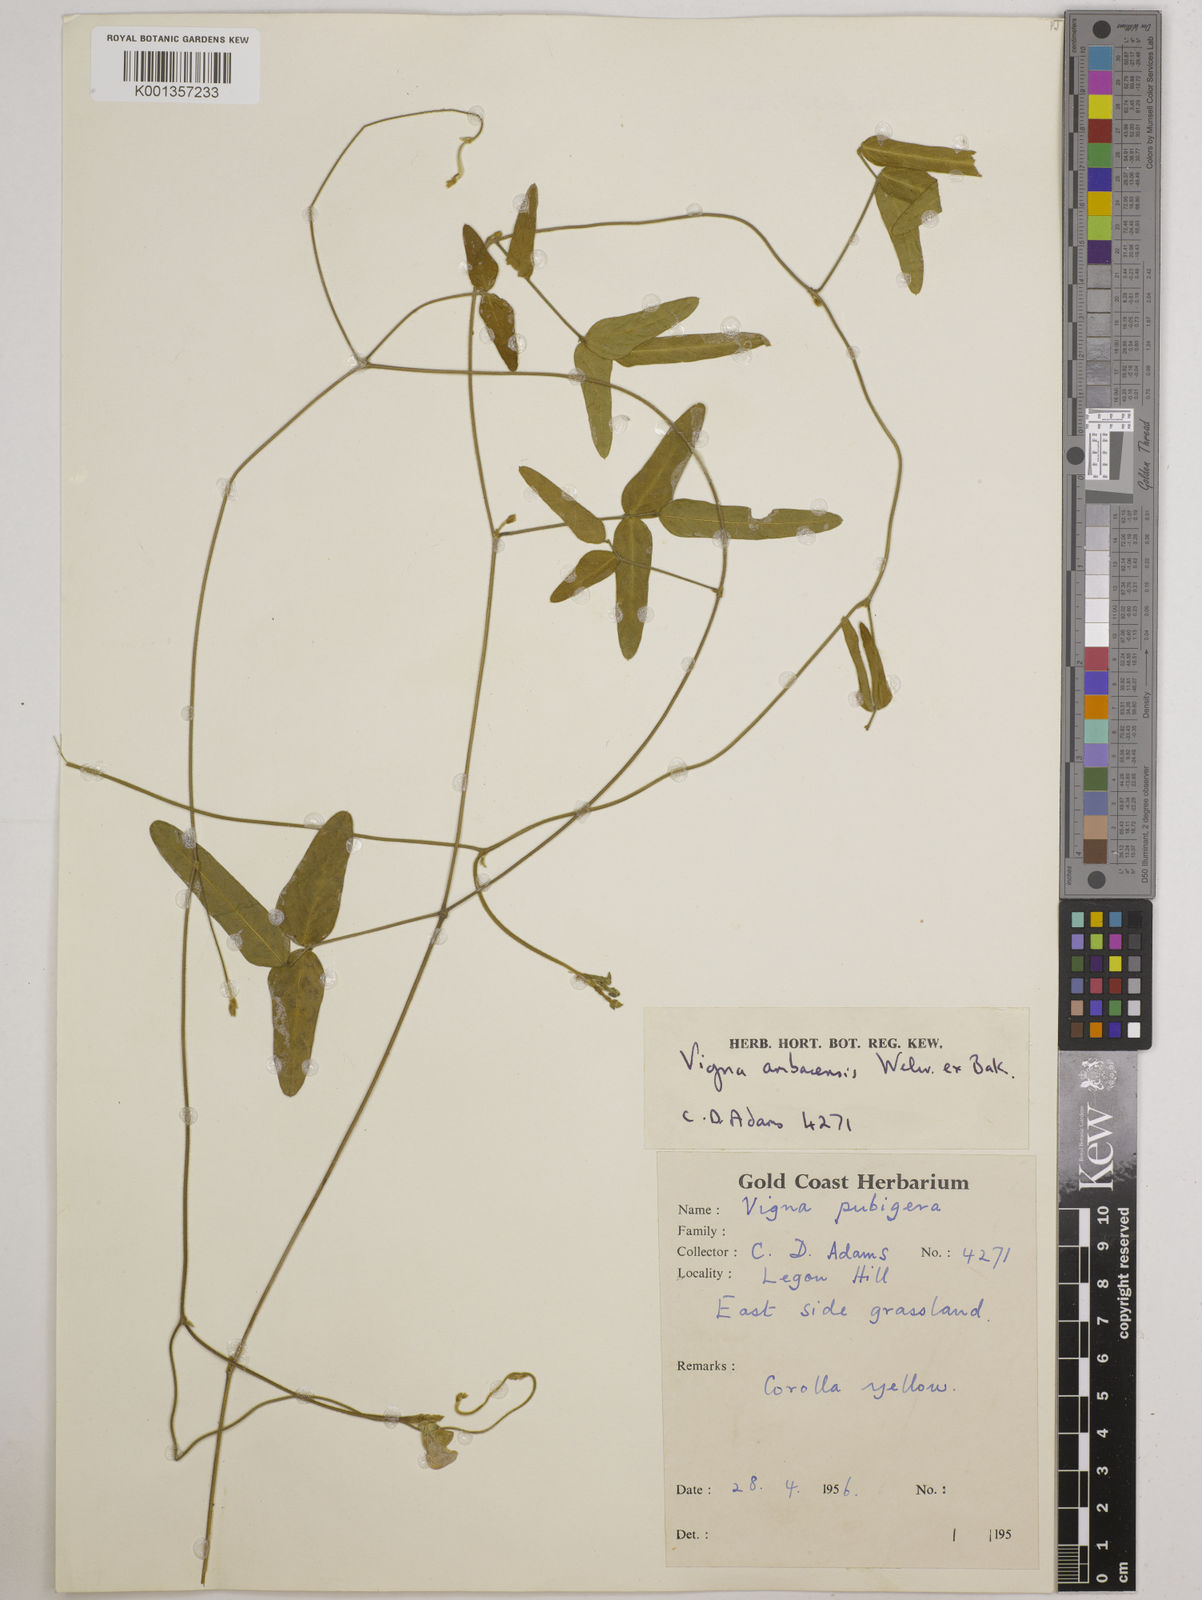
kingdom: Plantae
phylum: Tracheophyta
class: Magnoliopsida
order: Fabales
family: Fabaceae
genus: Vigna
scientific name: Vigna ambacensis
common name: Tsarkiyan zomo
